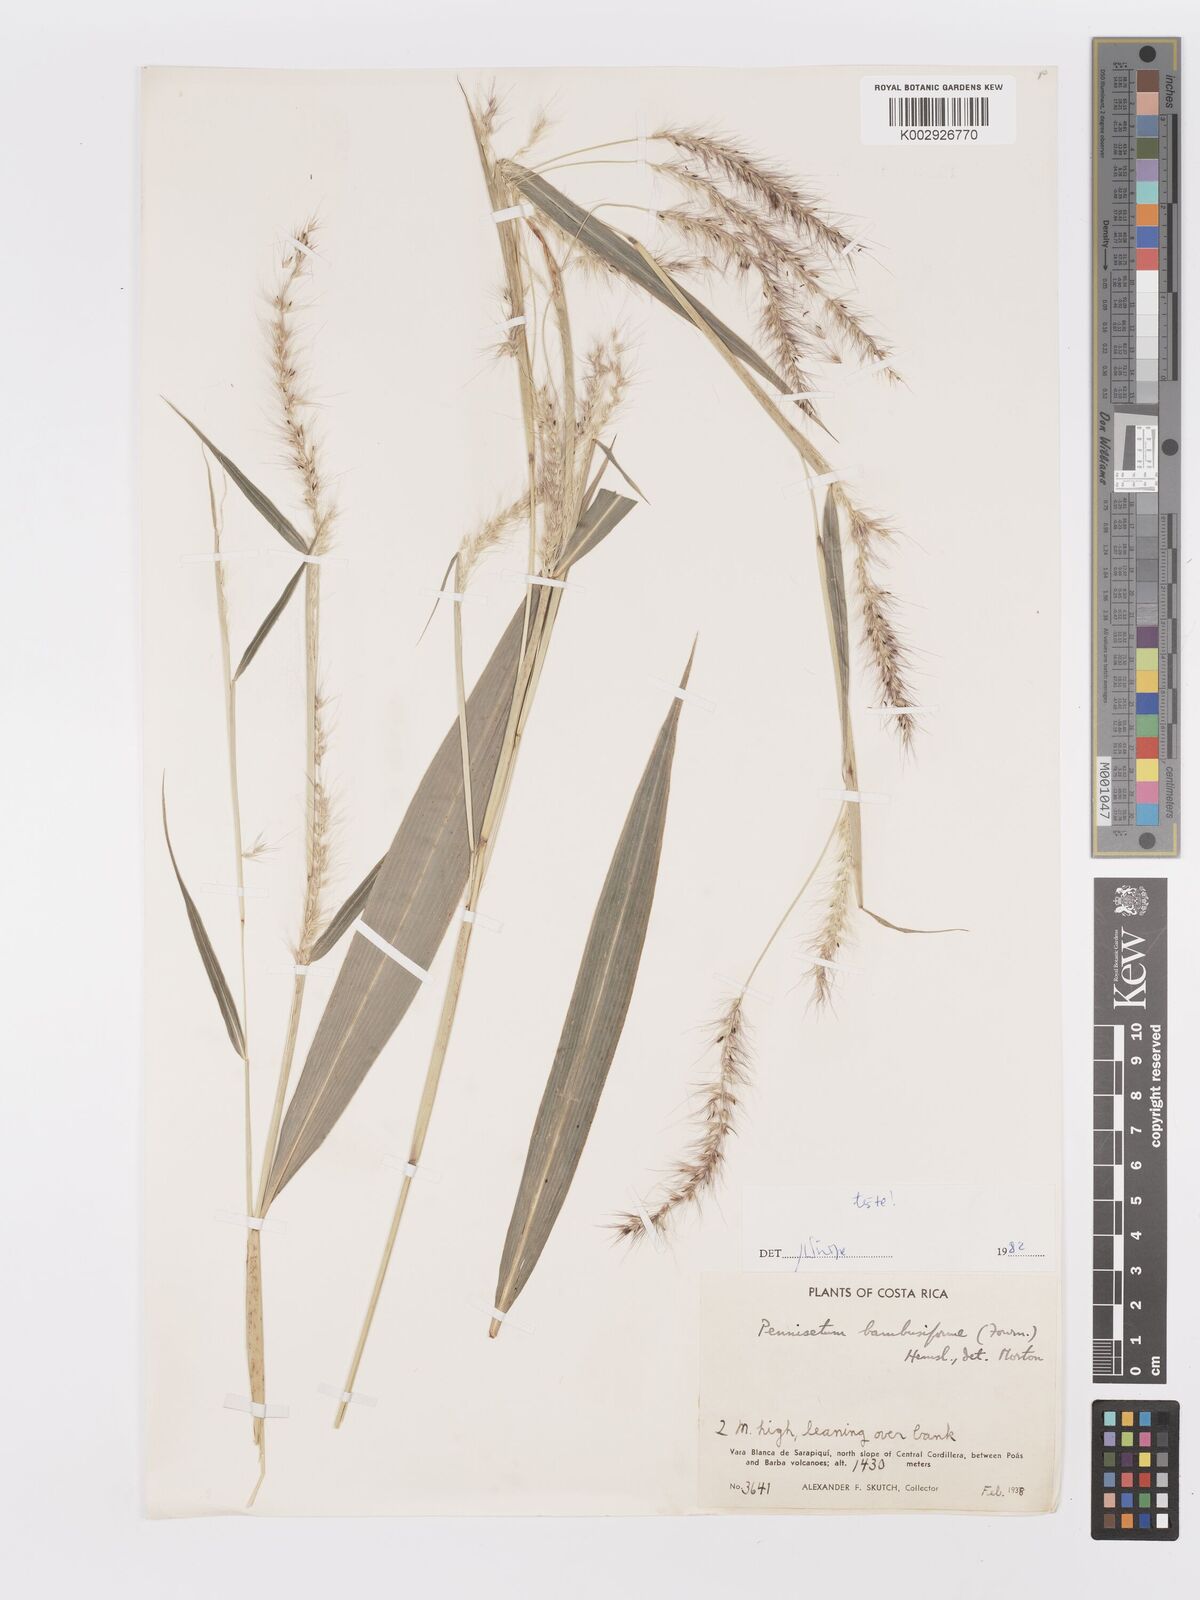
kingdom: Plantae
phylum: Tracheophyta
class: Liliopsida
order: Poales
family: Poaceae
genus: Cenchrus
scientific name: Cenchrus preslii
